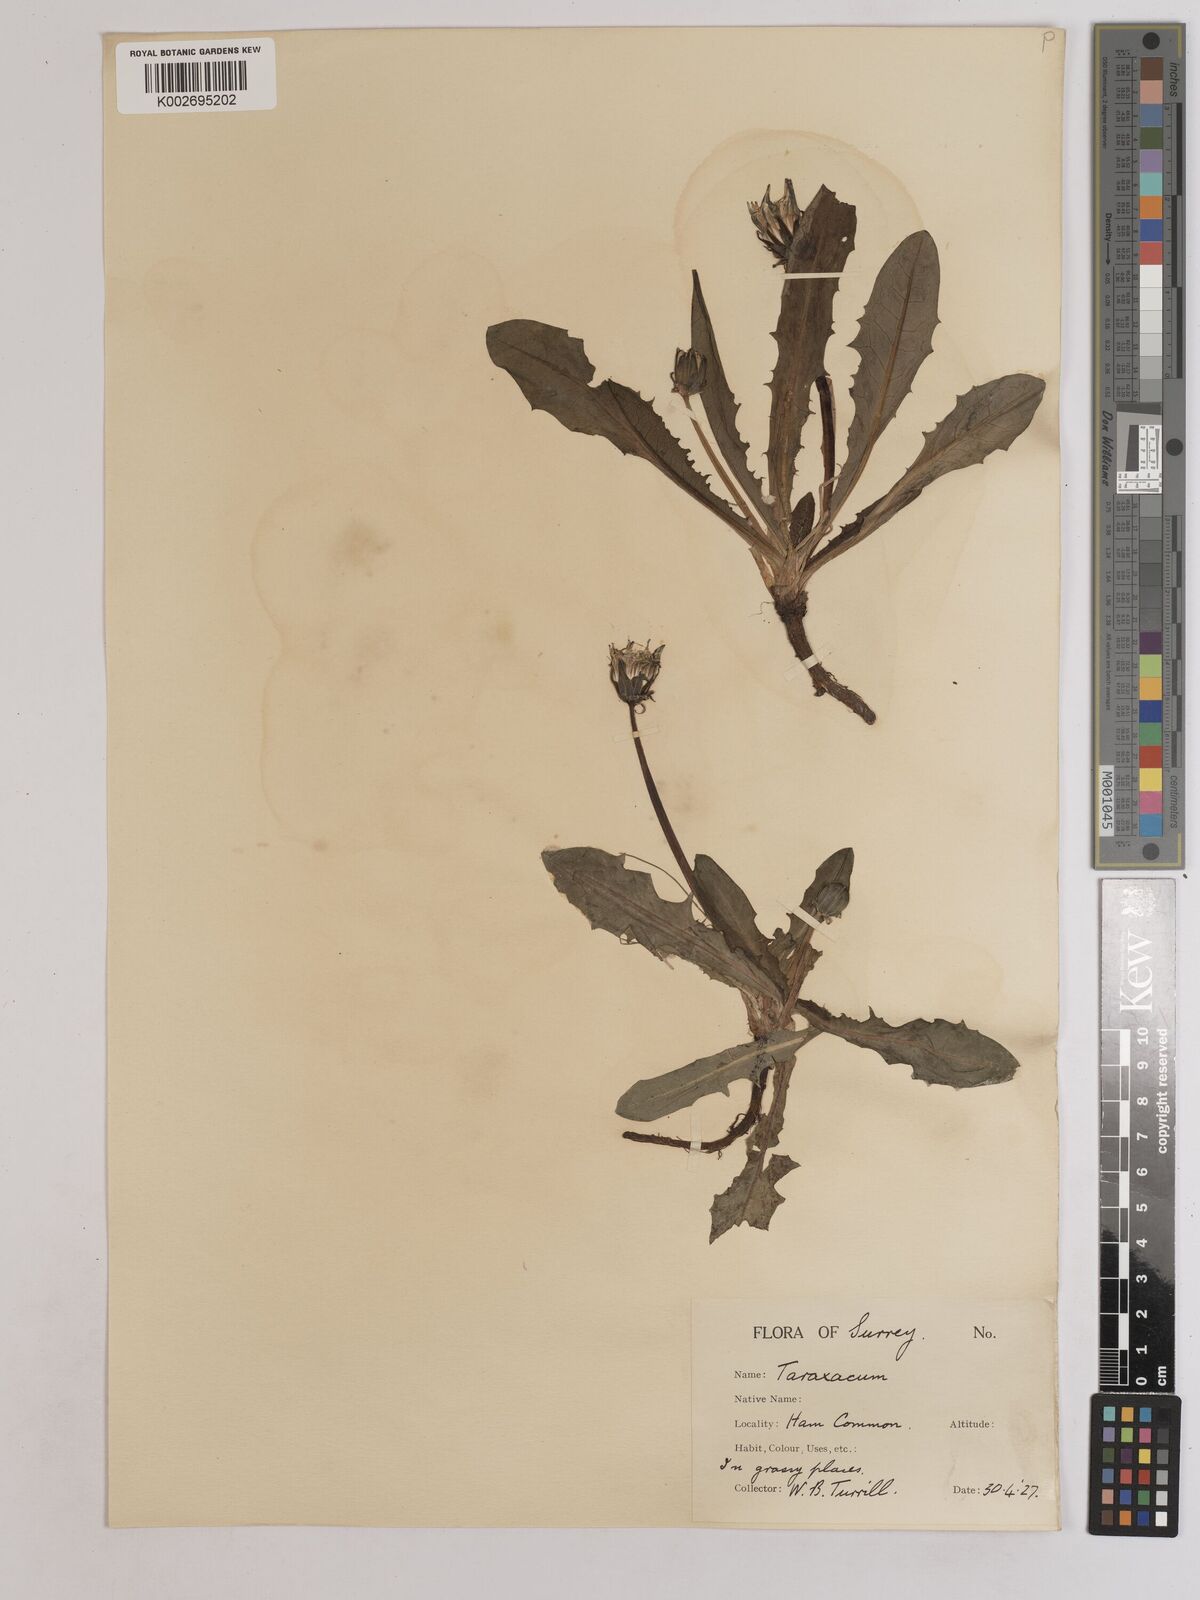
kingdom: Plantae
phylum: Tracheophyta
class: Magnoliopsida
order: Asterales
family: Asteraceae
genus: Taraxacum
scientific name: Taraxacum officinale
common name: Common dandelion
